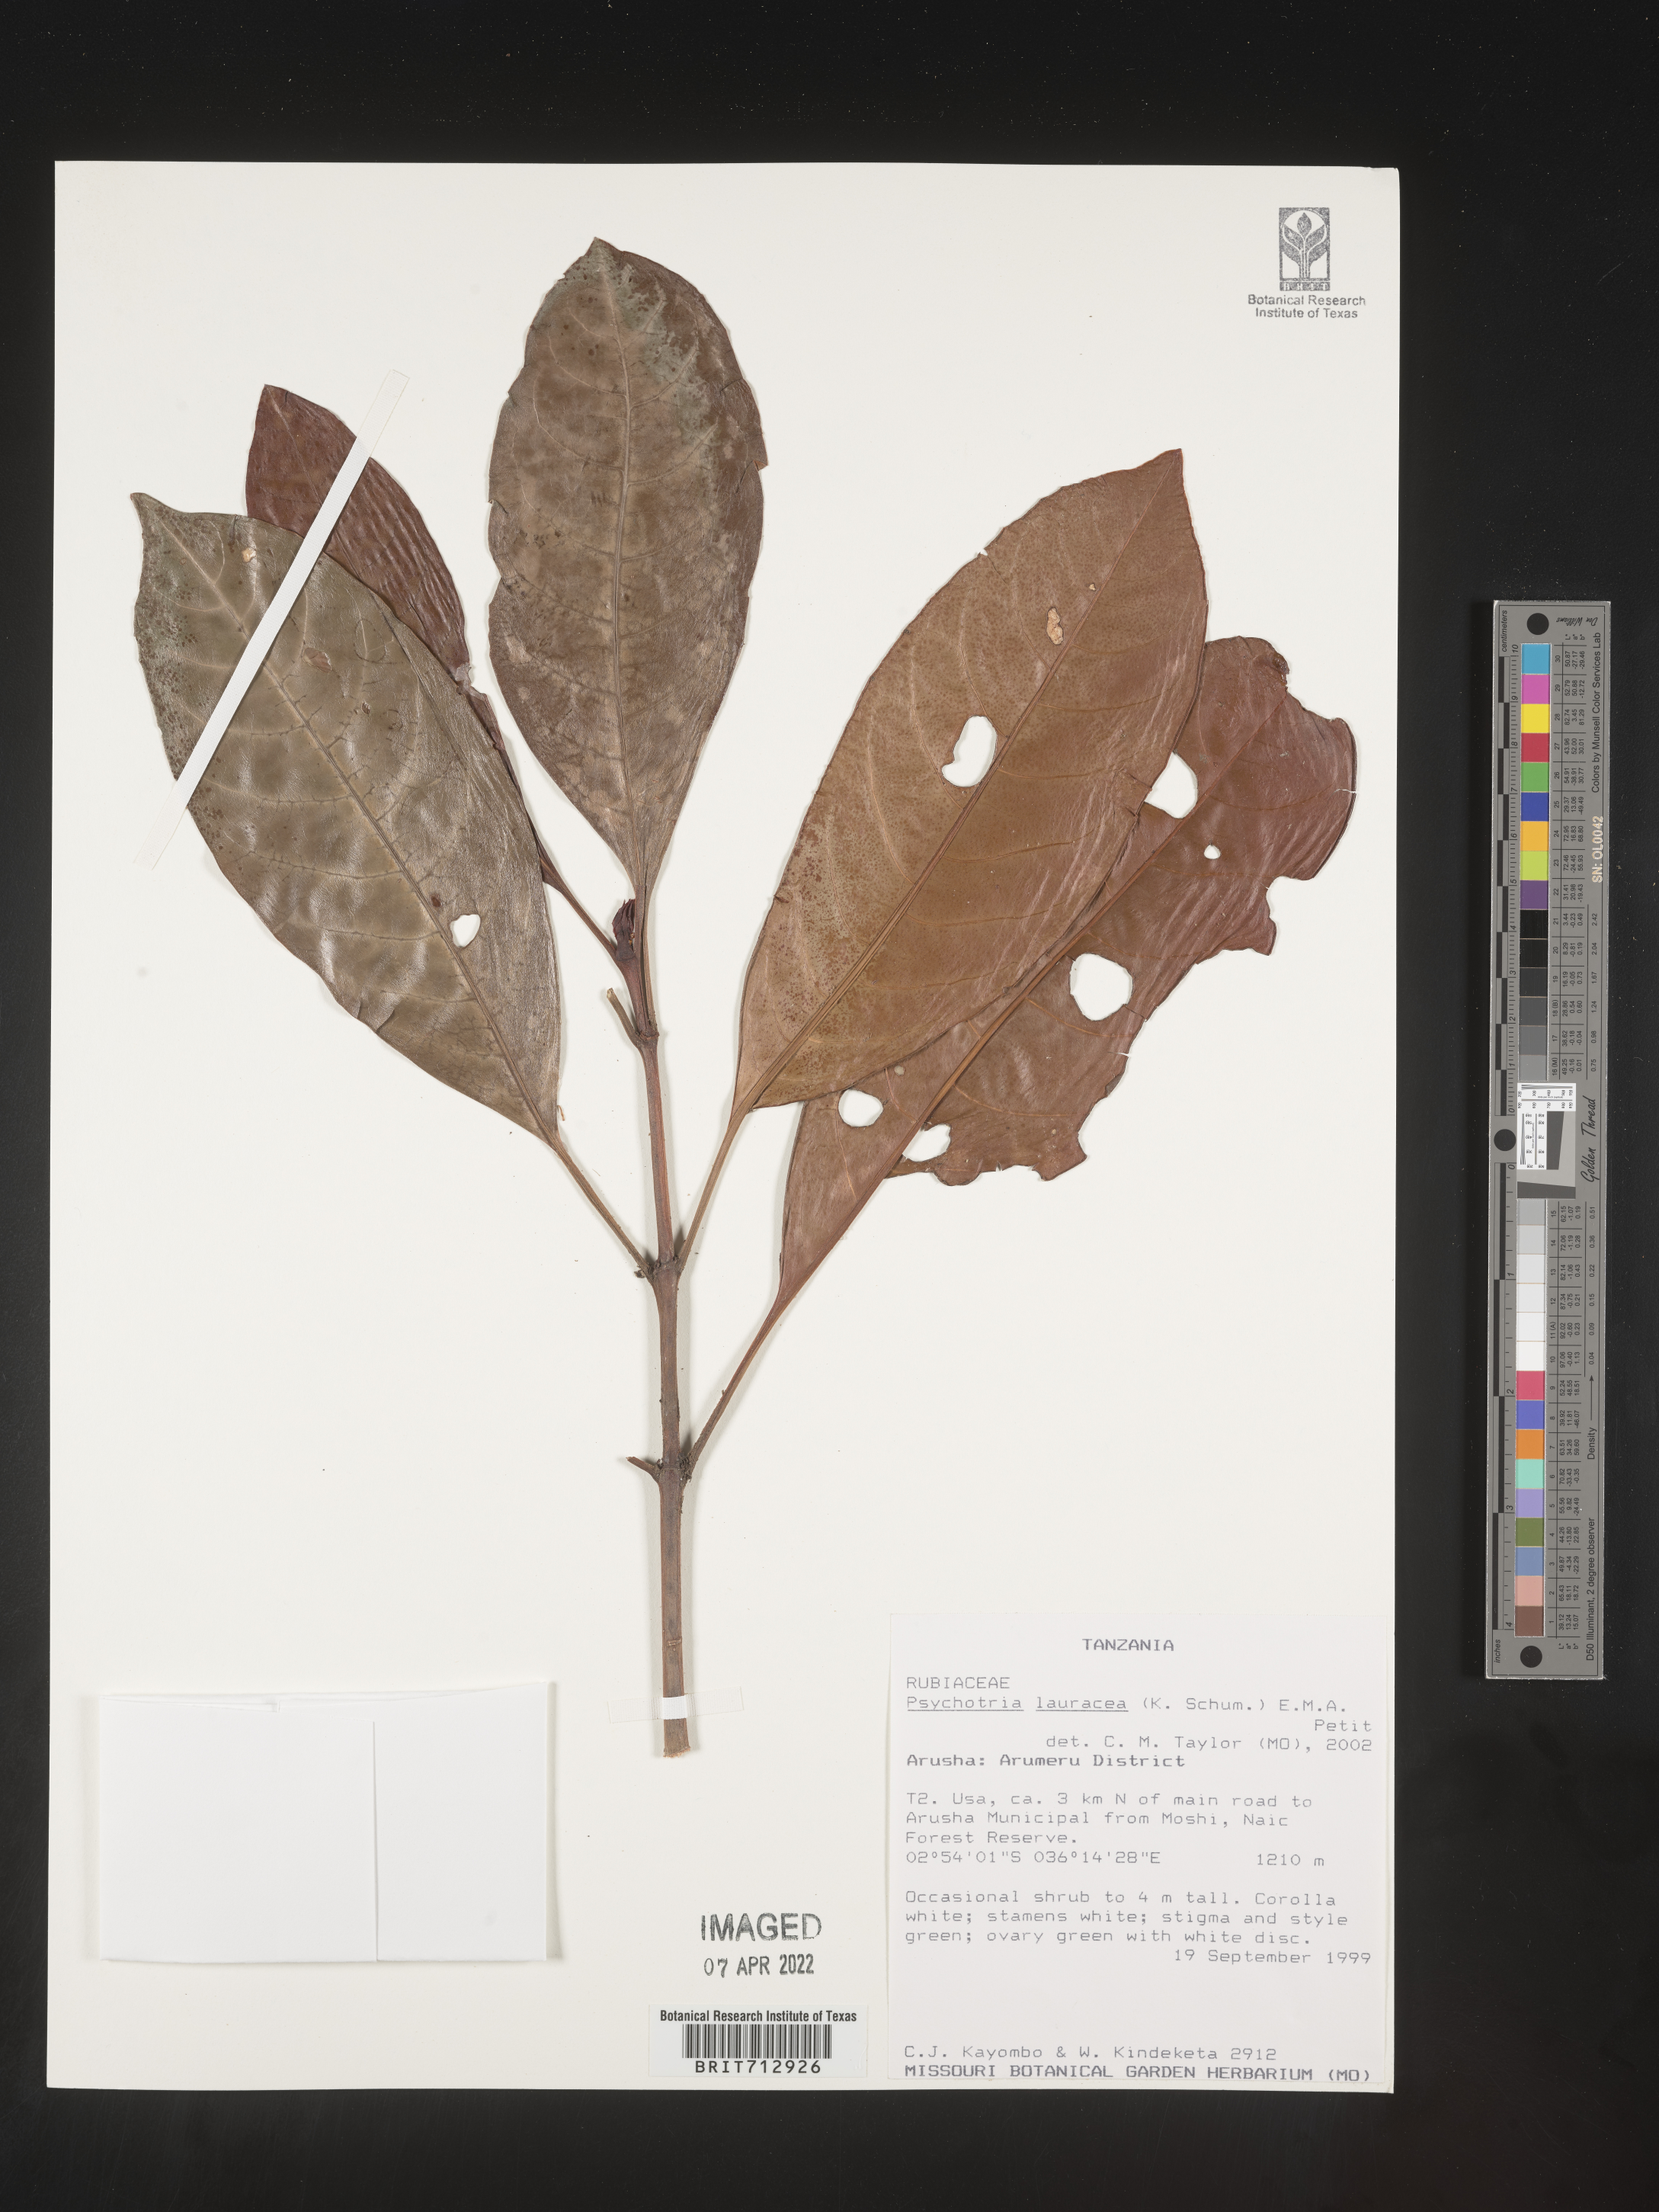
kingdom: Plantae
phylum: Tracheophyta
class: Magnoliopsida
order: Gentianales
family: Rubiaceae
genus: Psychotria
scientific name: Psychotria lauracea
